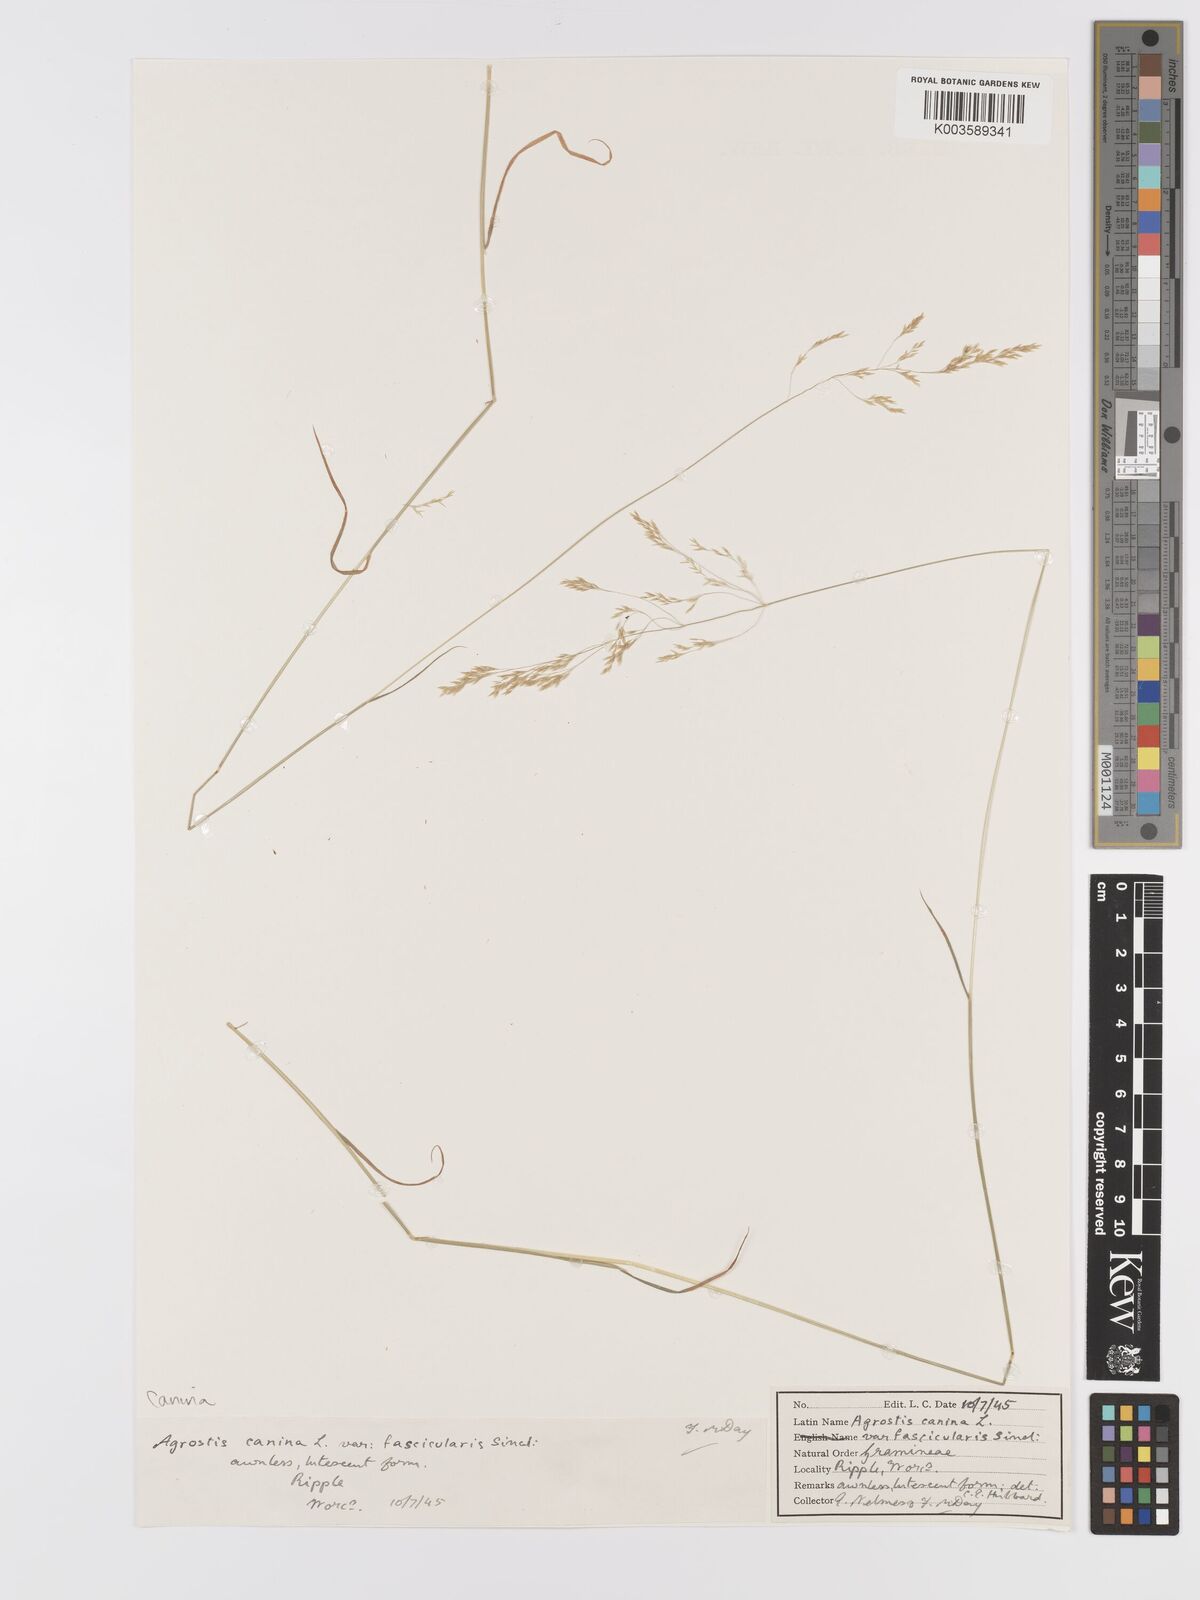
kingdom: Plantae
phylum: Tracheophyta
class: Liliopsida
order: Poales
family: Poaceae
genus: Agrostis
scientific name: Agrostis canina
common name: Velvet bent
